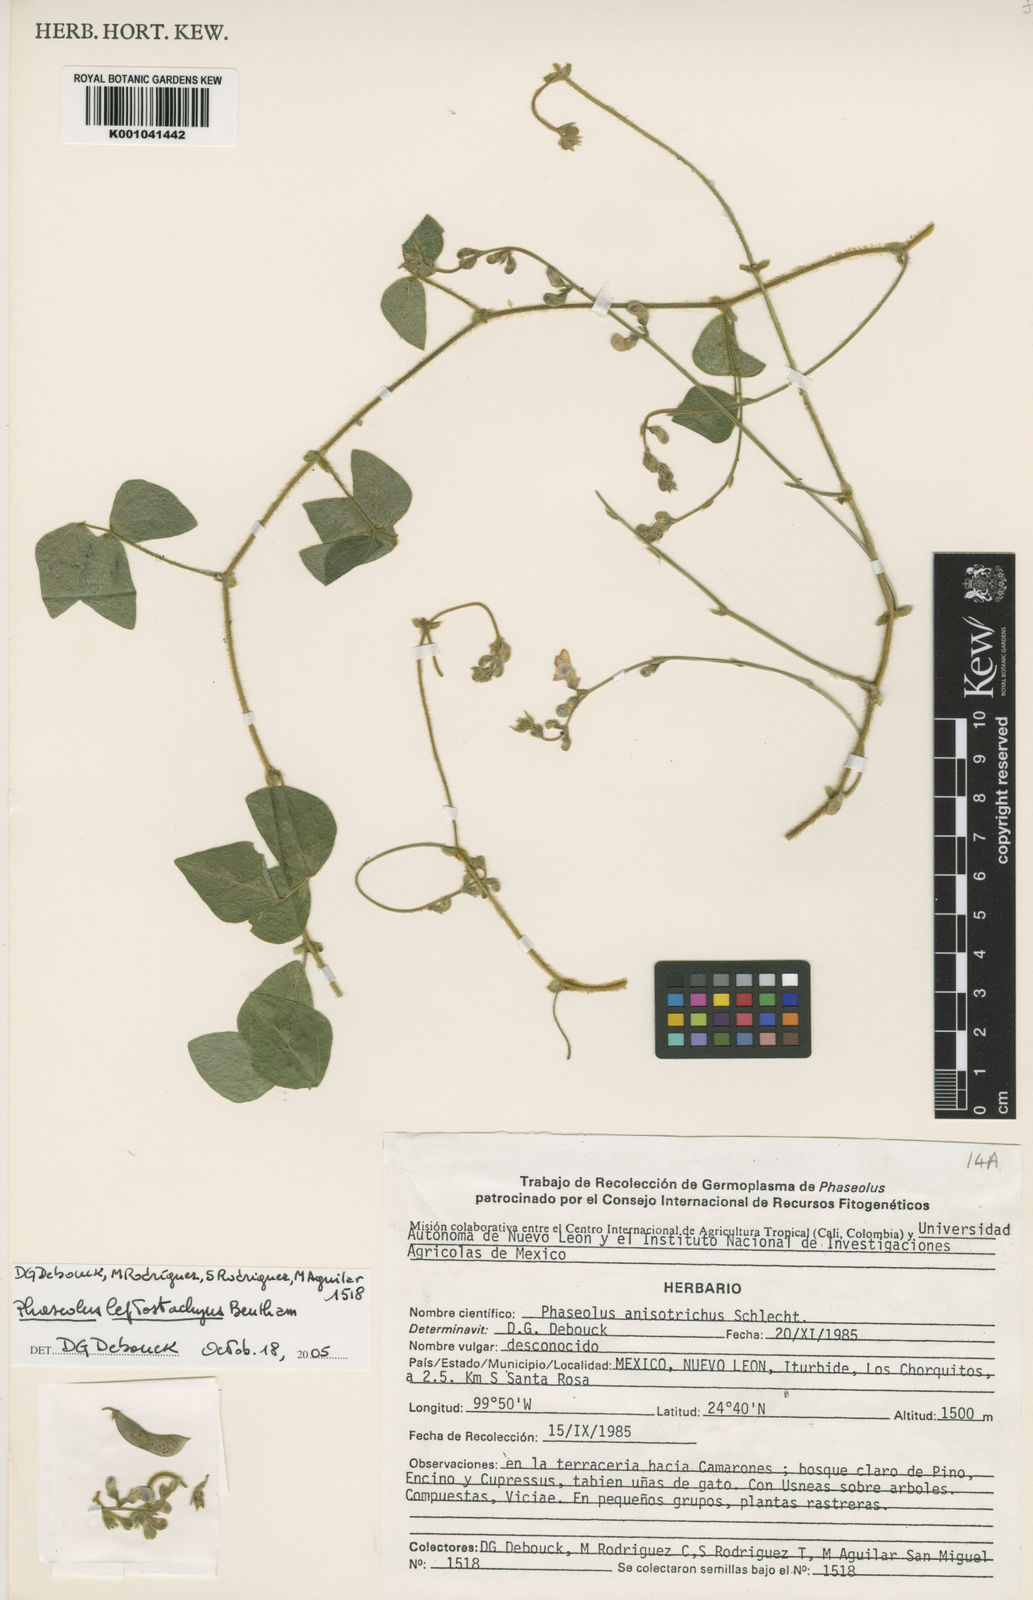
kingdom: Plantae
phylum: Tracheophyta
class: Magnoliopsida
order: Fabales
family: Fabaceae
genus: Phaseolus
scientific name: Phaseolus
